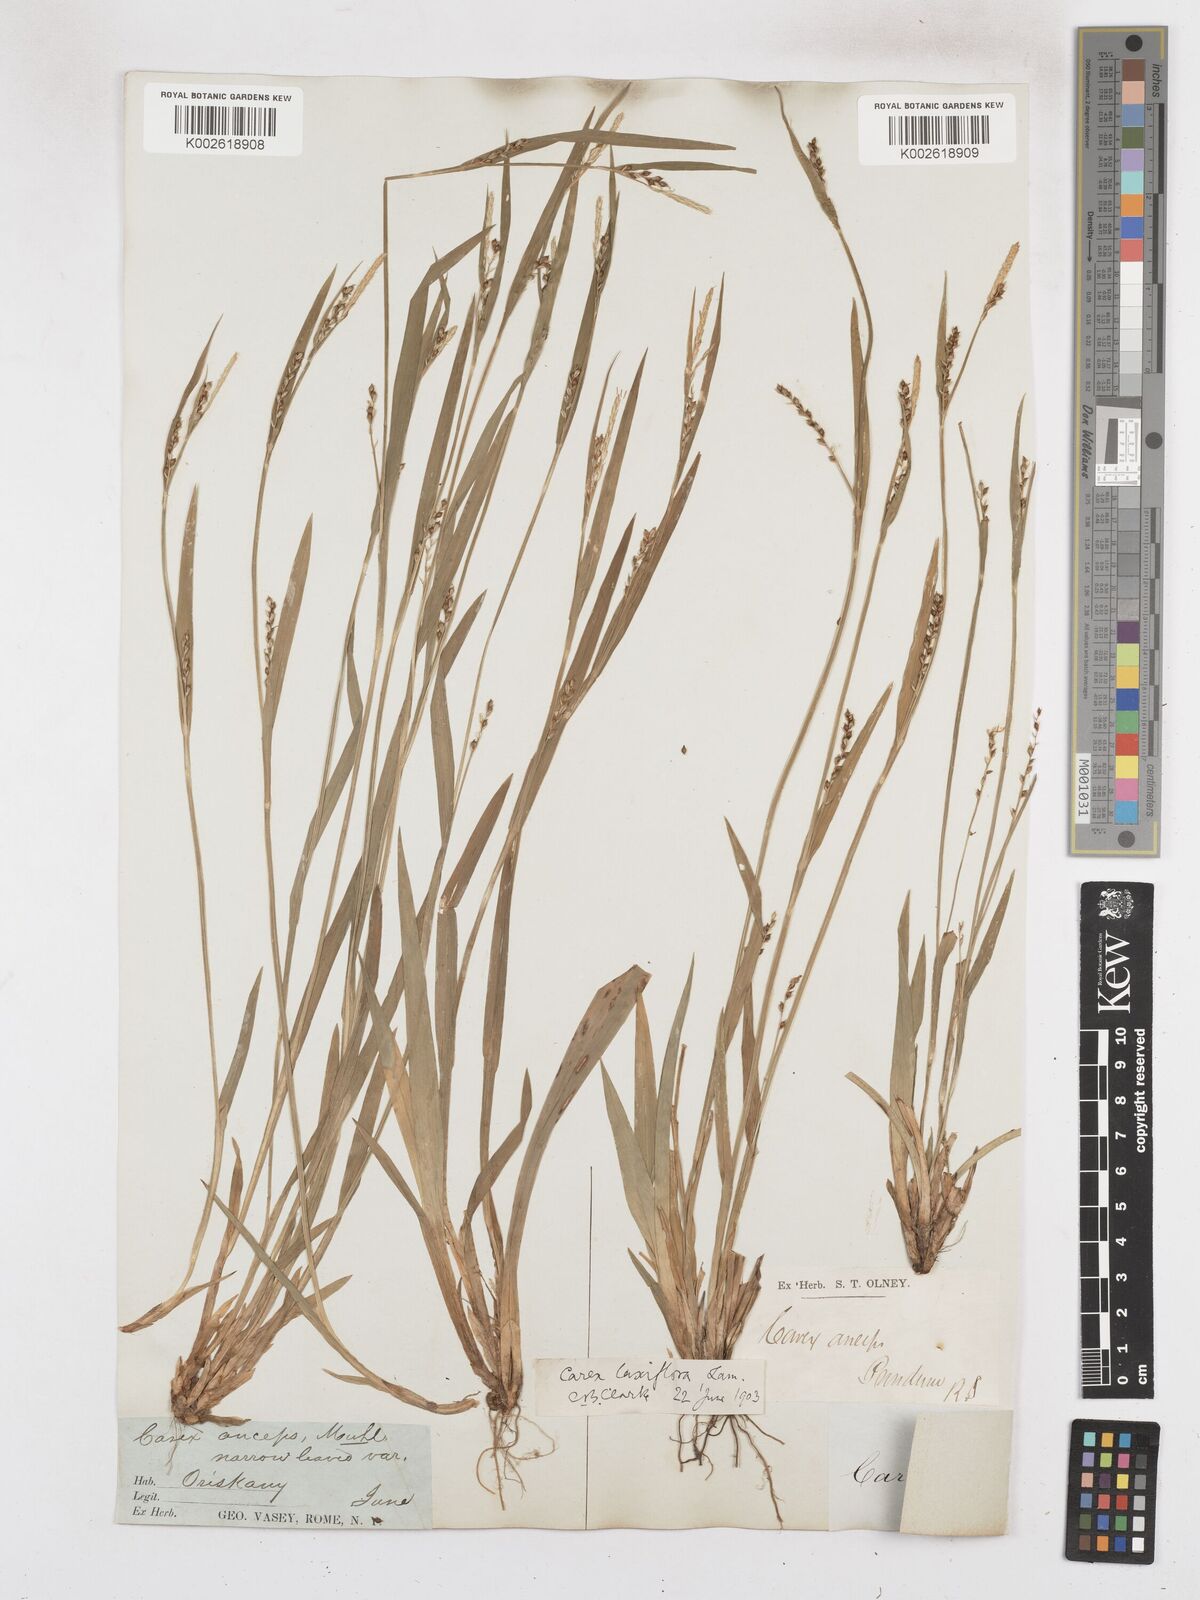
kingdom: Plantae
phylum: Tracheophyta
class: Liliopsida
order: Poales
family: Cyperaceae
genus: Carex
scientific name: Carex laxiflora
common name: Beech wood sedge
